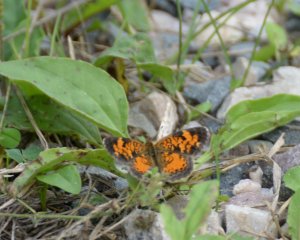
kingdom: Animalia
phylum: Arthropoda
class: Insecta
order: Lepidoptera
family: Nymphalidae
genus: Phyciodes
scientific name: Phyciodes tharos
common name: Northern Crescent
